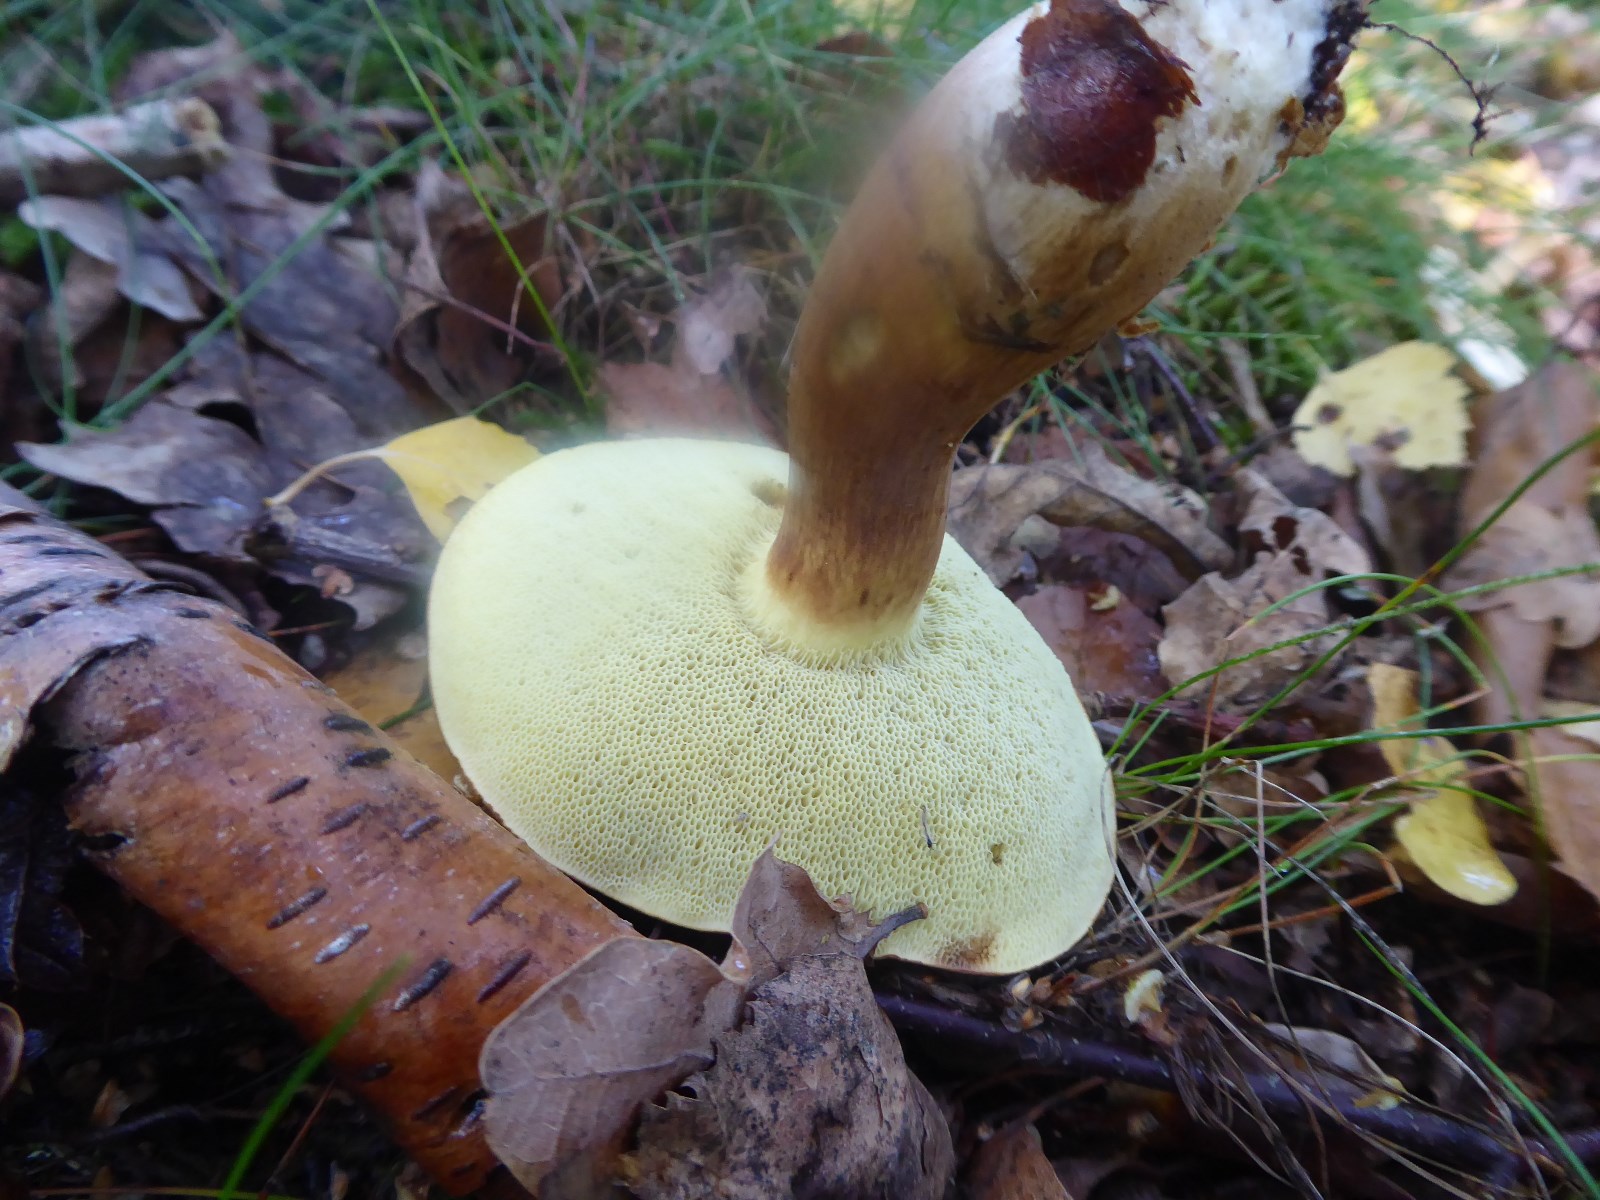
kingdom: Fungi
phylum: Basidiomycota
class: Agaricomycetes
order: Boletales
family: Boletaceae
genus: Imleria
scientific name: Imleria badia
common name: brunstokket rørhat
